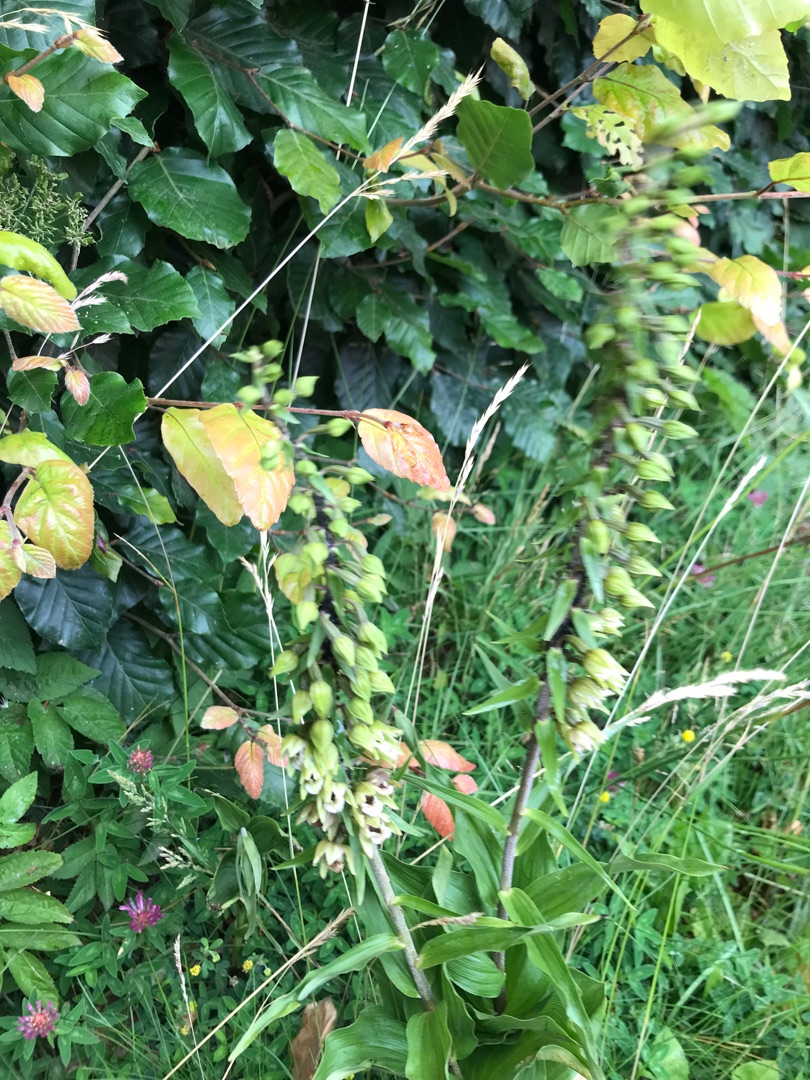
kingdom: Plantae
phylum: Tracheophyta
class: Liliopsida
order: Asparagales
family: Orchidaceae
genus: Epipactis
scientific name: Epipactis helleborine
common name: Skov-hullæbe (underart)
